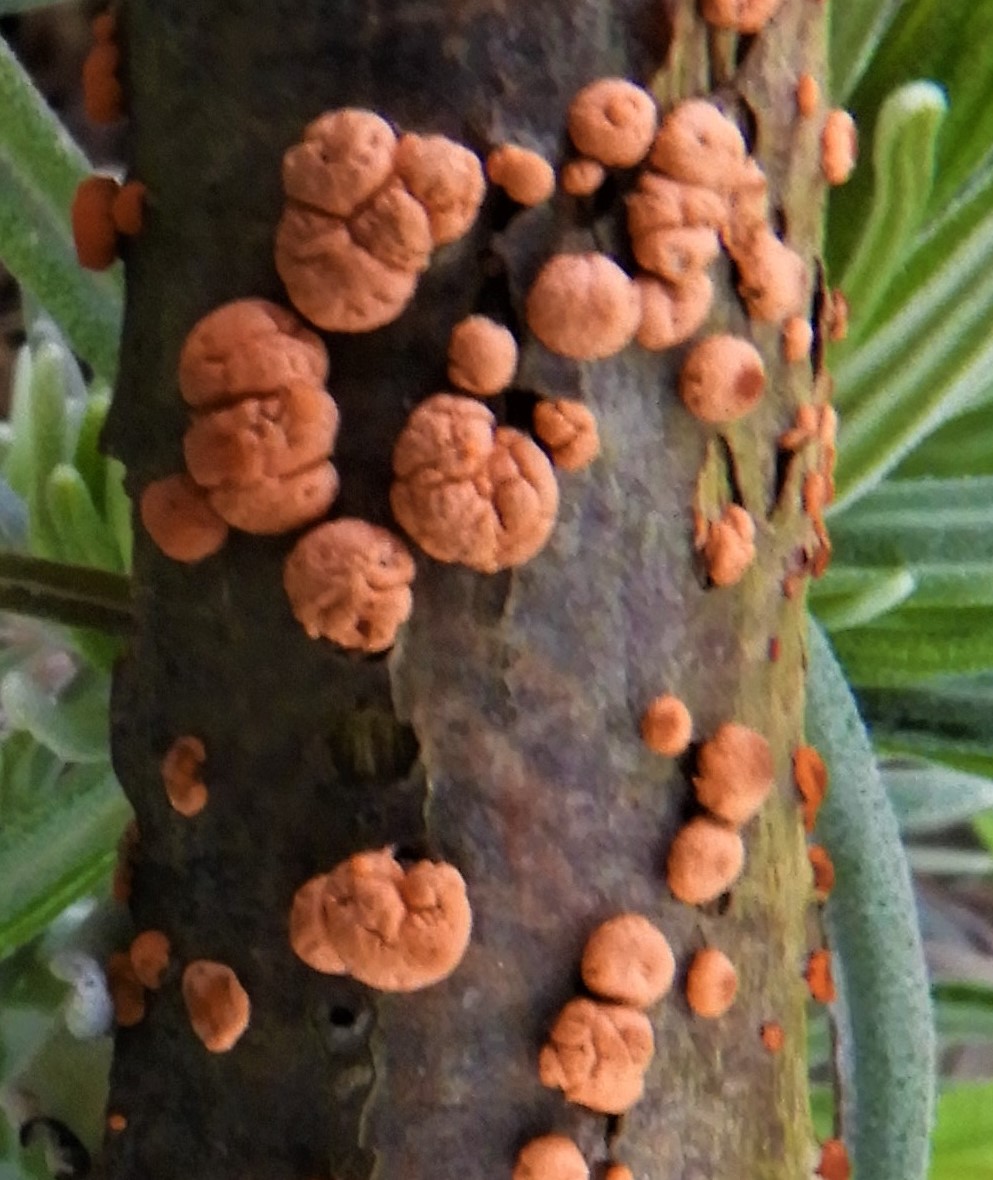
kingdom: Fungi
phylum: Ascomycota
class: Sordariomycetes
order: Hypocreales
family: Nectriaceae
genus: Nectria
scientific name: Nectria cinnabarina
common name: almindelig cinnobersvamp
